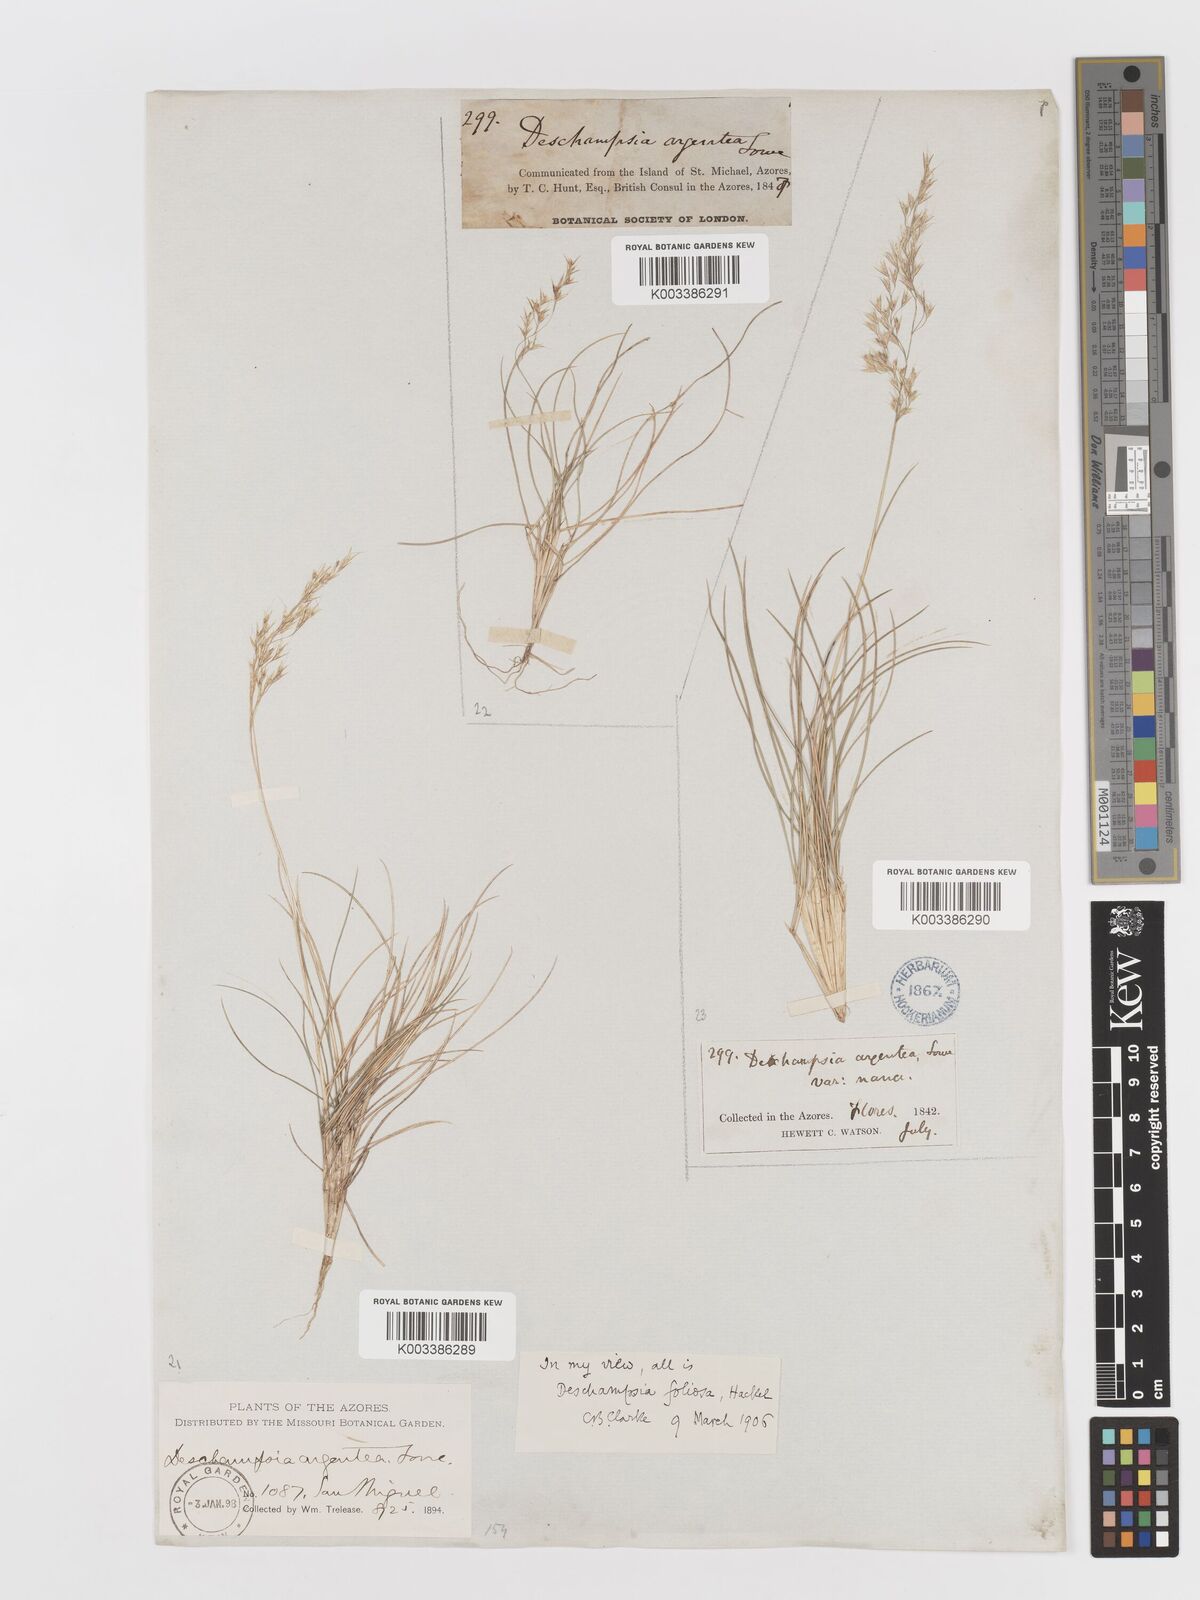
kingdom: Plantae
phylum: Tracheophyta
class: Liliopsida
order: Poales
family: Poaceae
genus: Avenella
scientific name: Avenella foliosa
